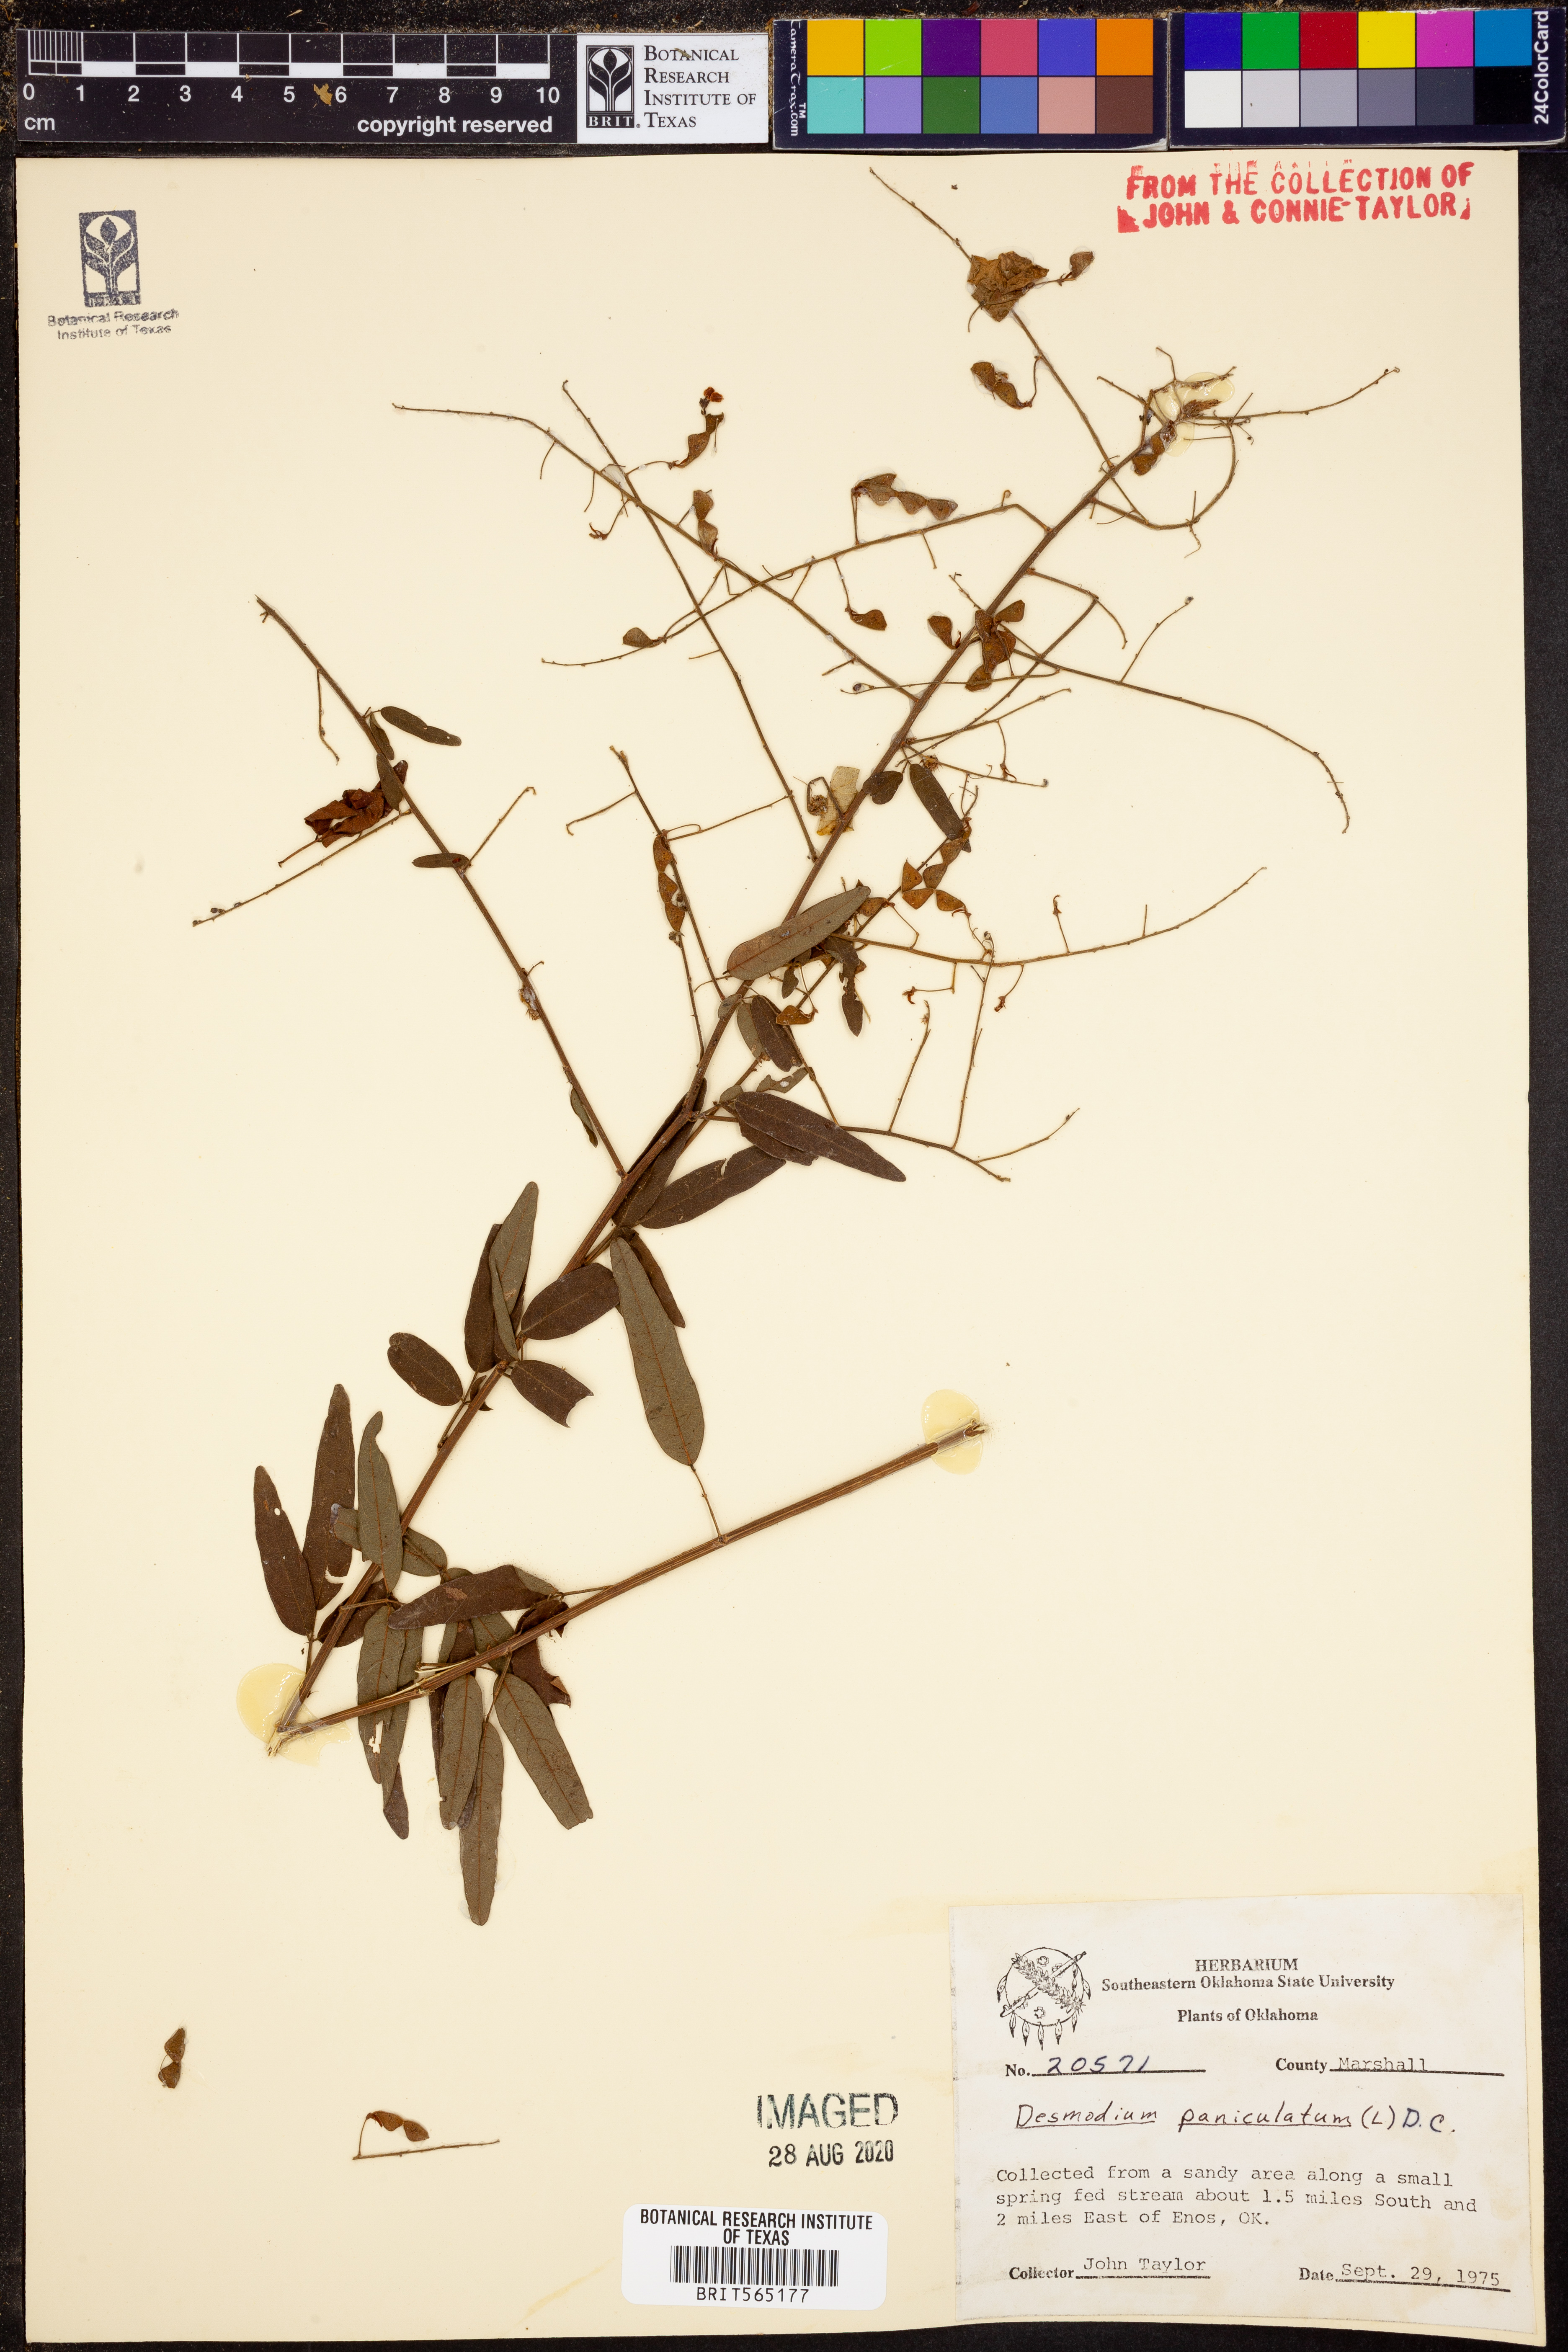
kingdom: Plantae
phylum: Tracheophyta
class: Magnoliopsida
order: Fabales
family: Fabaceae
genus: Desmodium
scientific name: Desmodium paniculatum
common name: Panicled tick-clover
